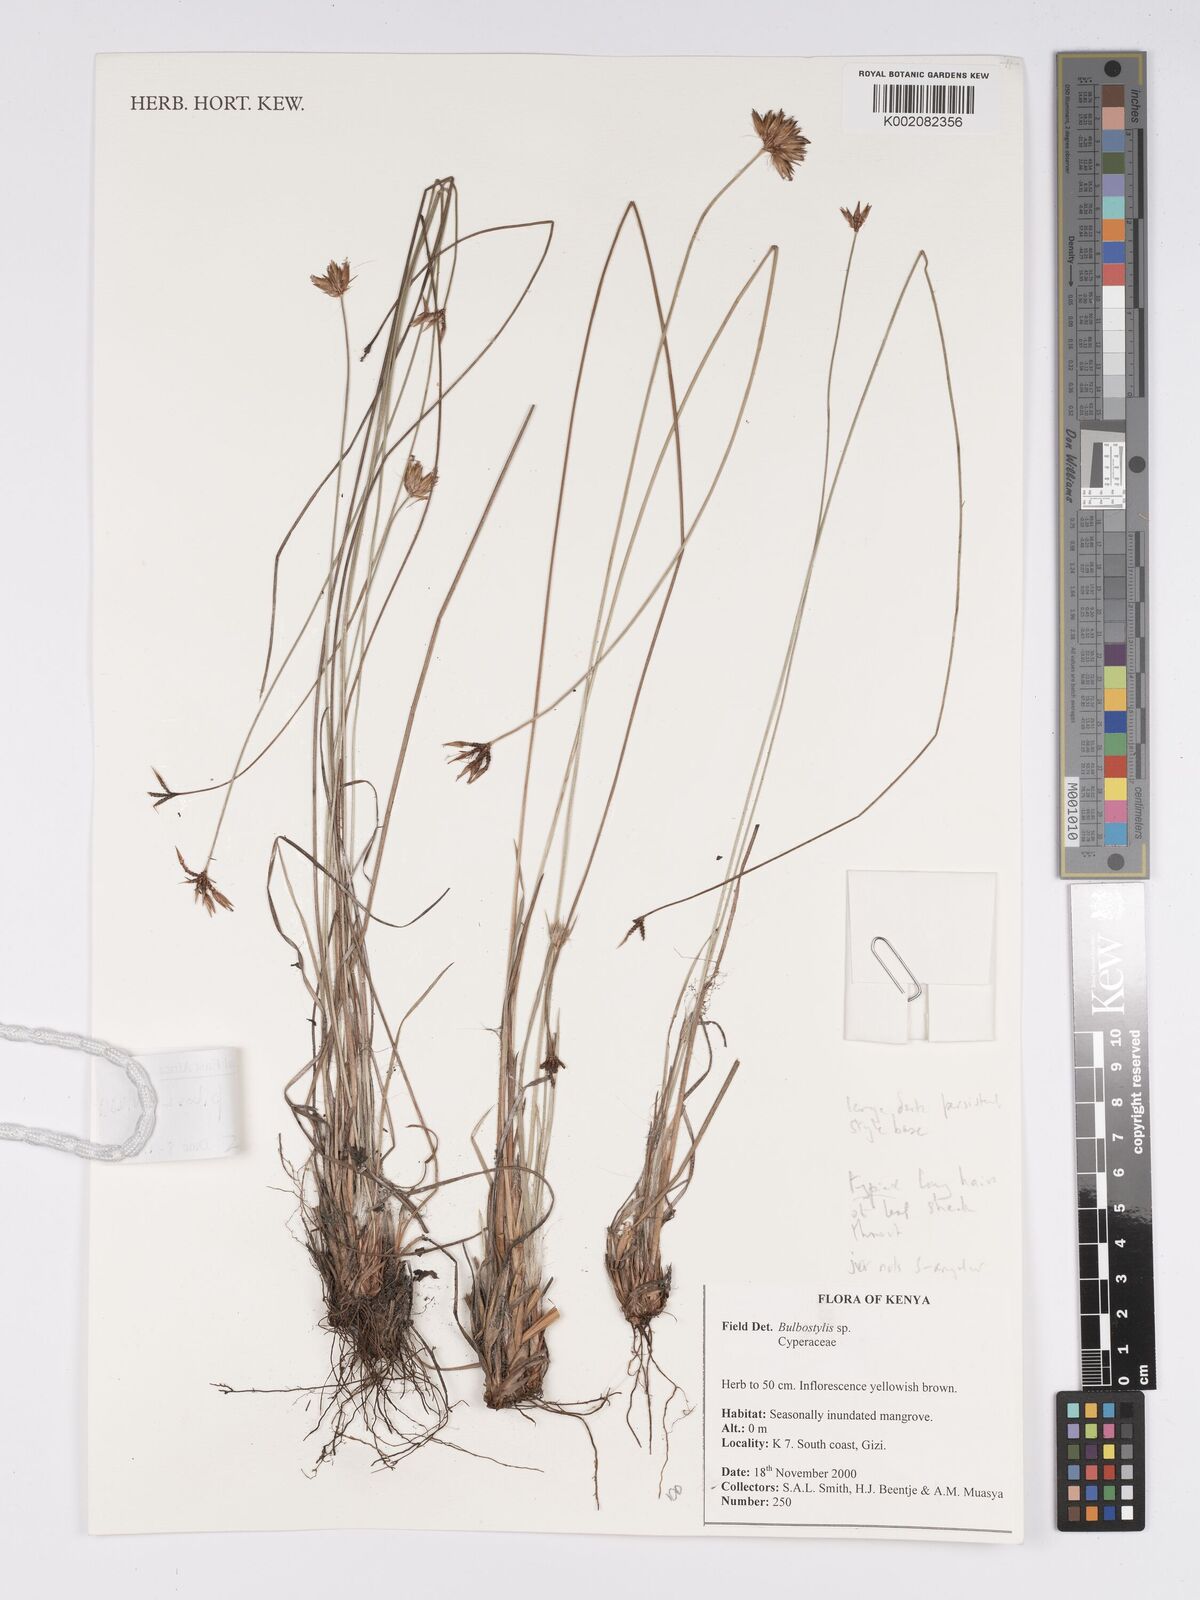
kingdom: Plantae
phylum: Tracheophyta
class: Liliopsida
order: Poales
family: Cyperaceae
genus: Bulbostylis
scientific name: Bulbostylis pilosa
